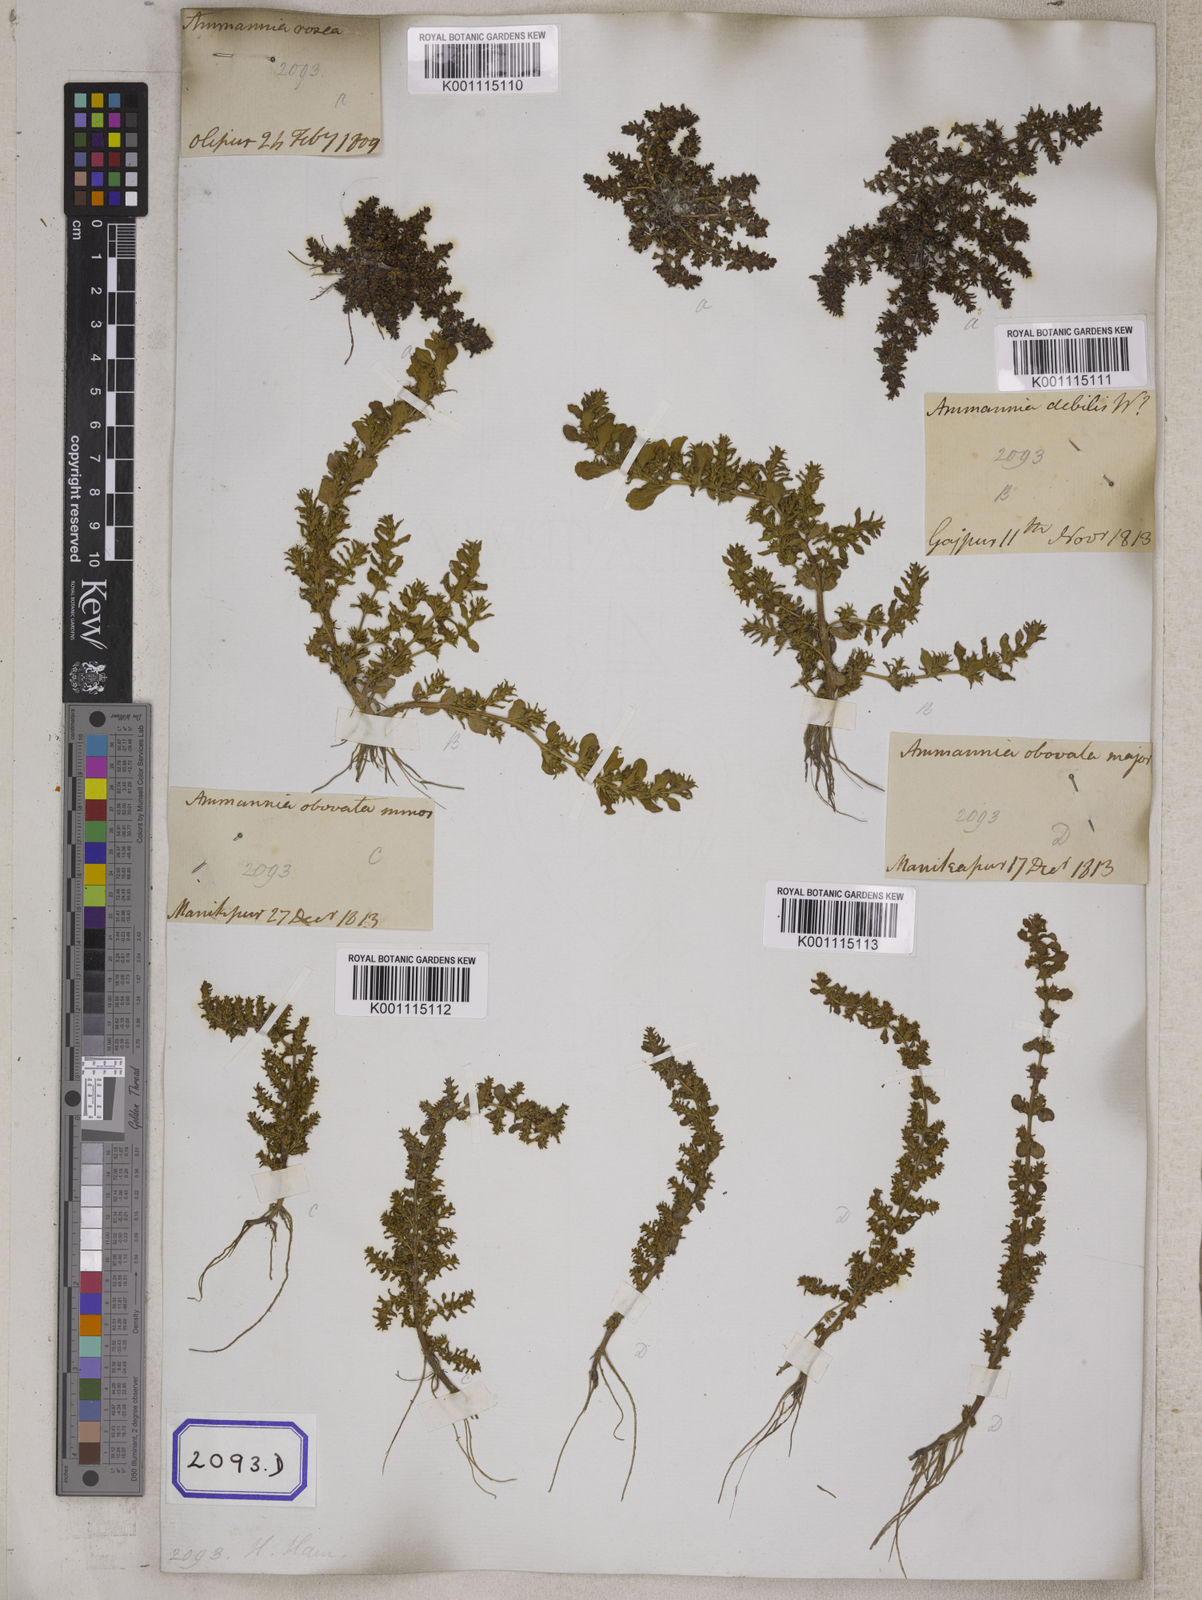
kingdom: Plantae
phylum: Tracheophyta
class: Magnoliopsida
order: Myrtales
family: Lythraceae
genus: Rotala
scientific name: Rotala indica
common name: Indian toothcup
